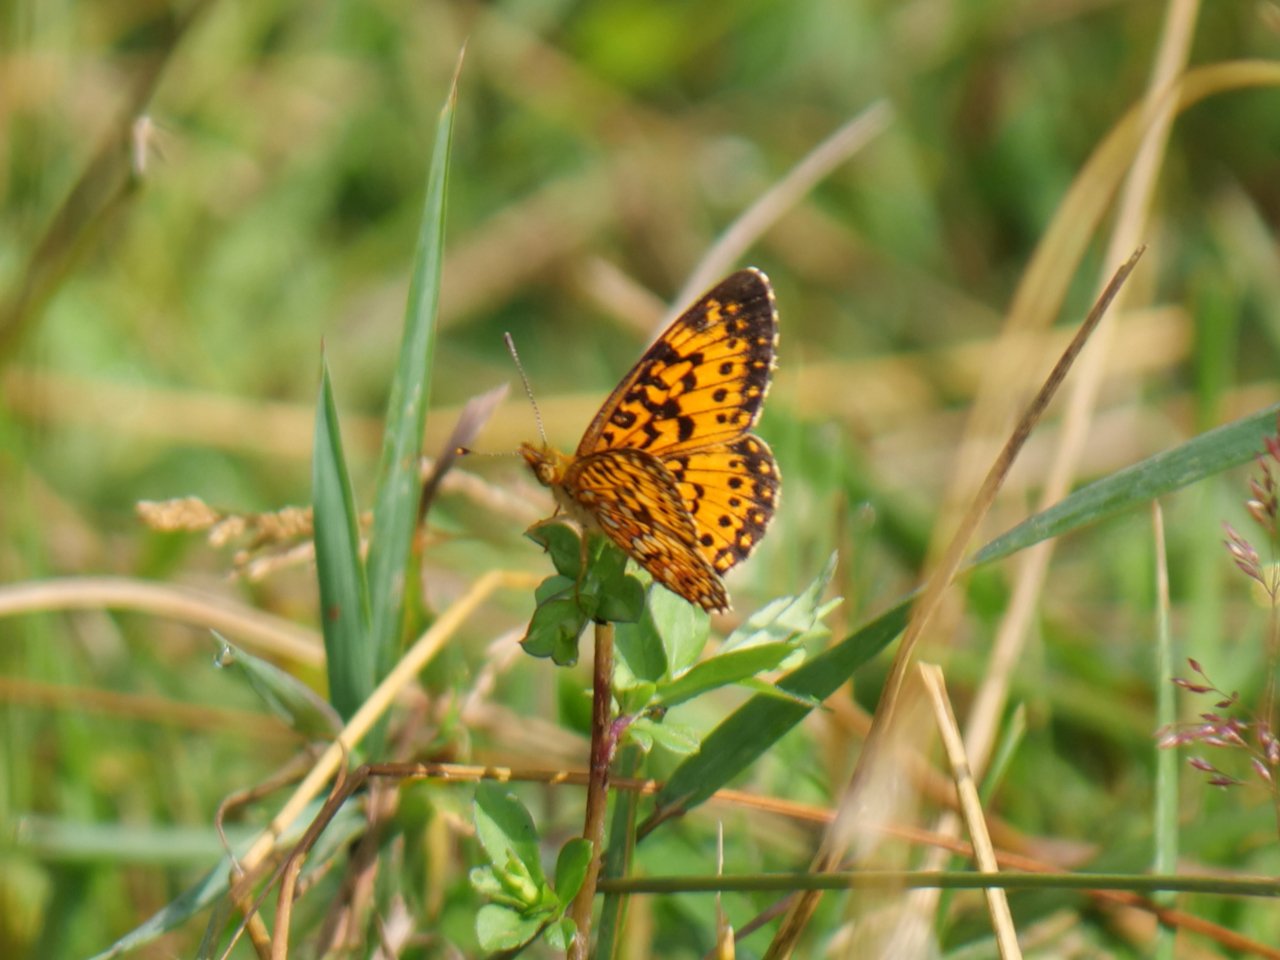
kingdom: Animalia
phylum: Arthropoda
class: Insecta
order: Lepidoptera
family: Nymphalidae
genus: Boloria
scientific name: Boloria selene
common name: Silver-bordered Fritillary
